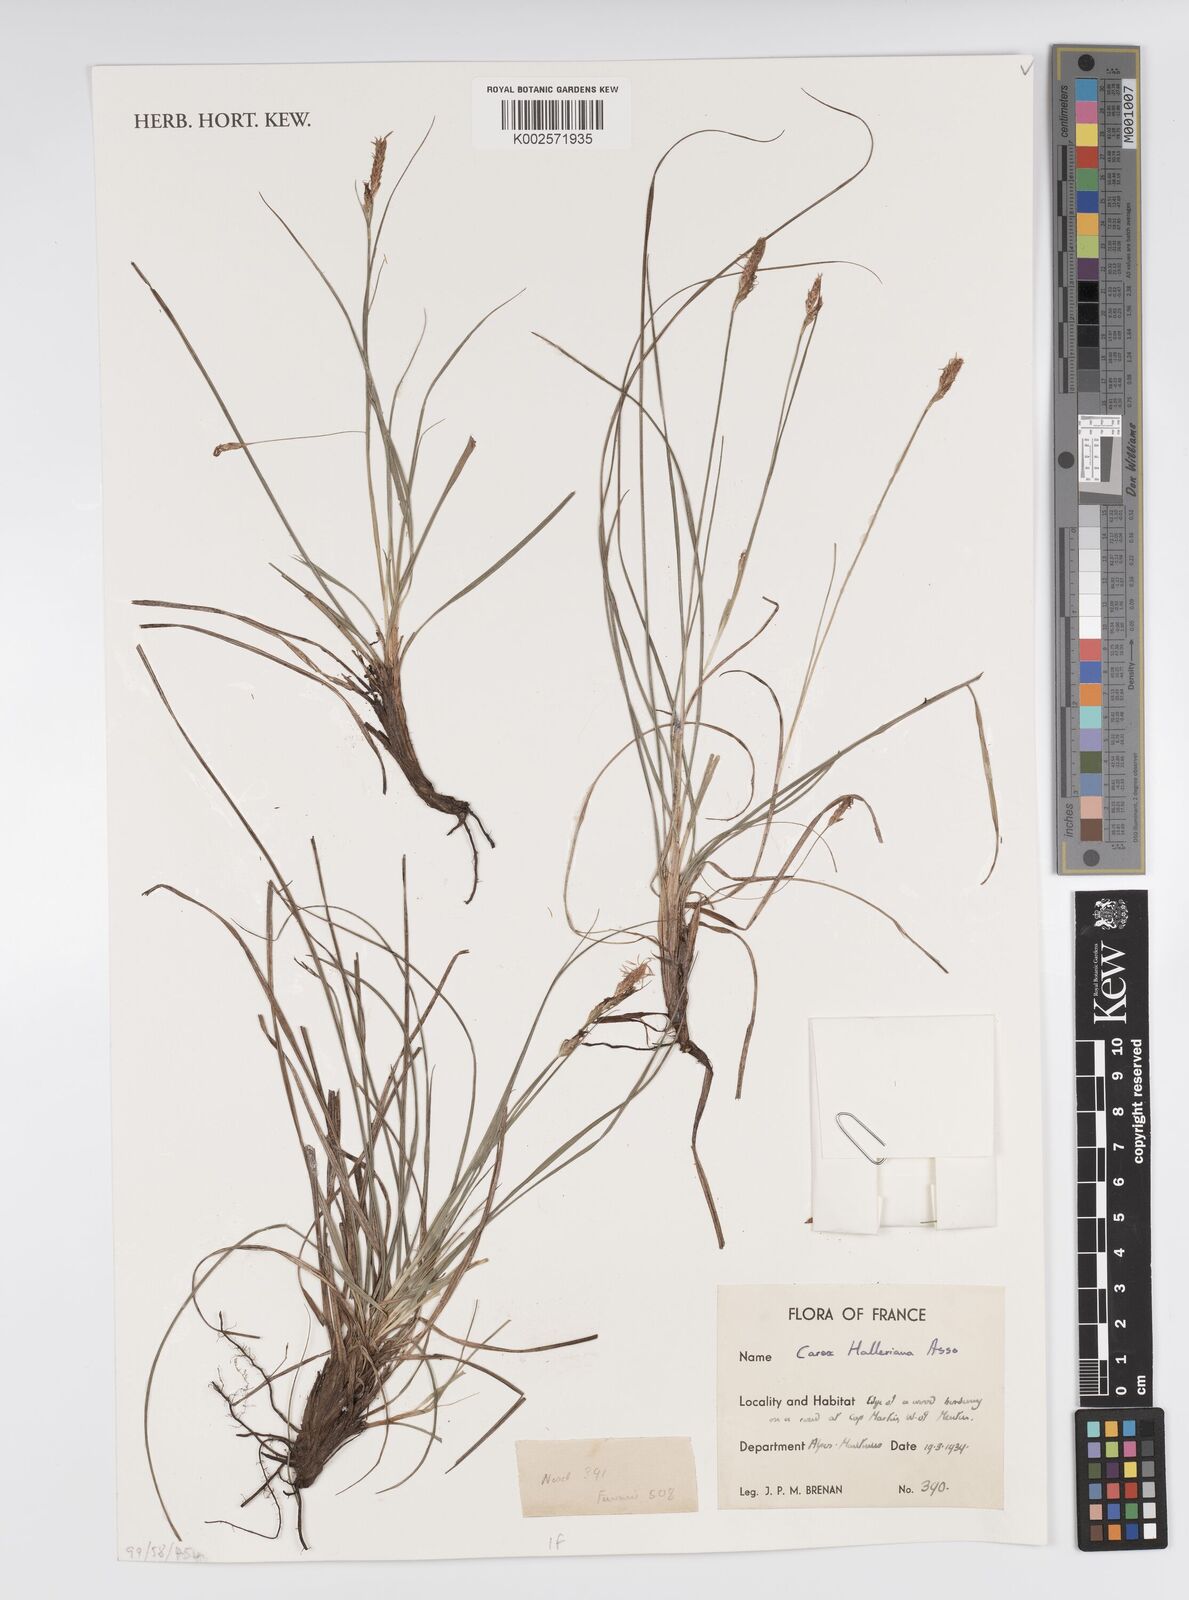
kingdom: Plantae
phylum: Tracheophyta
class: Liliopsida
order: Poales
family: Cyperaceae
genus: Carex
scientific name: Carex halleriana
